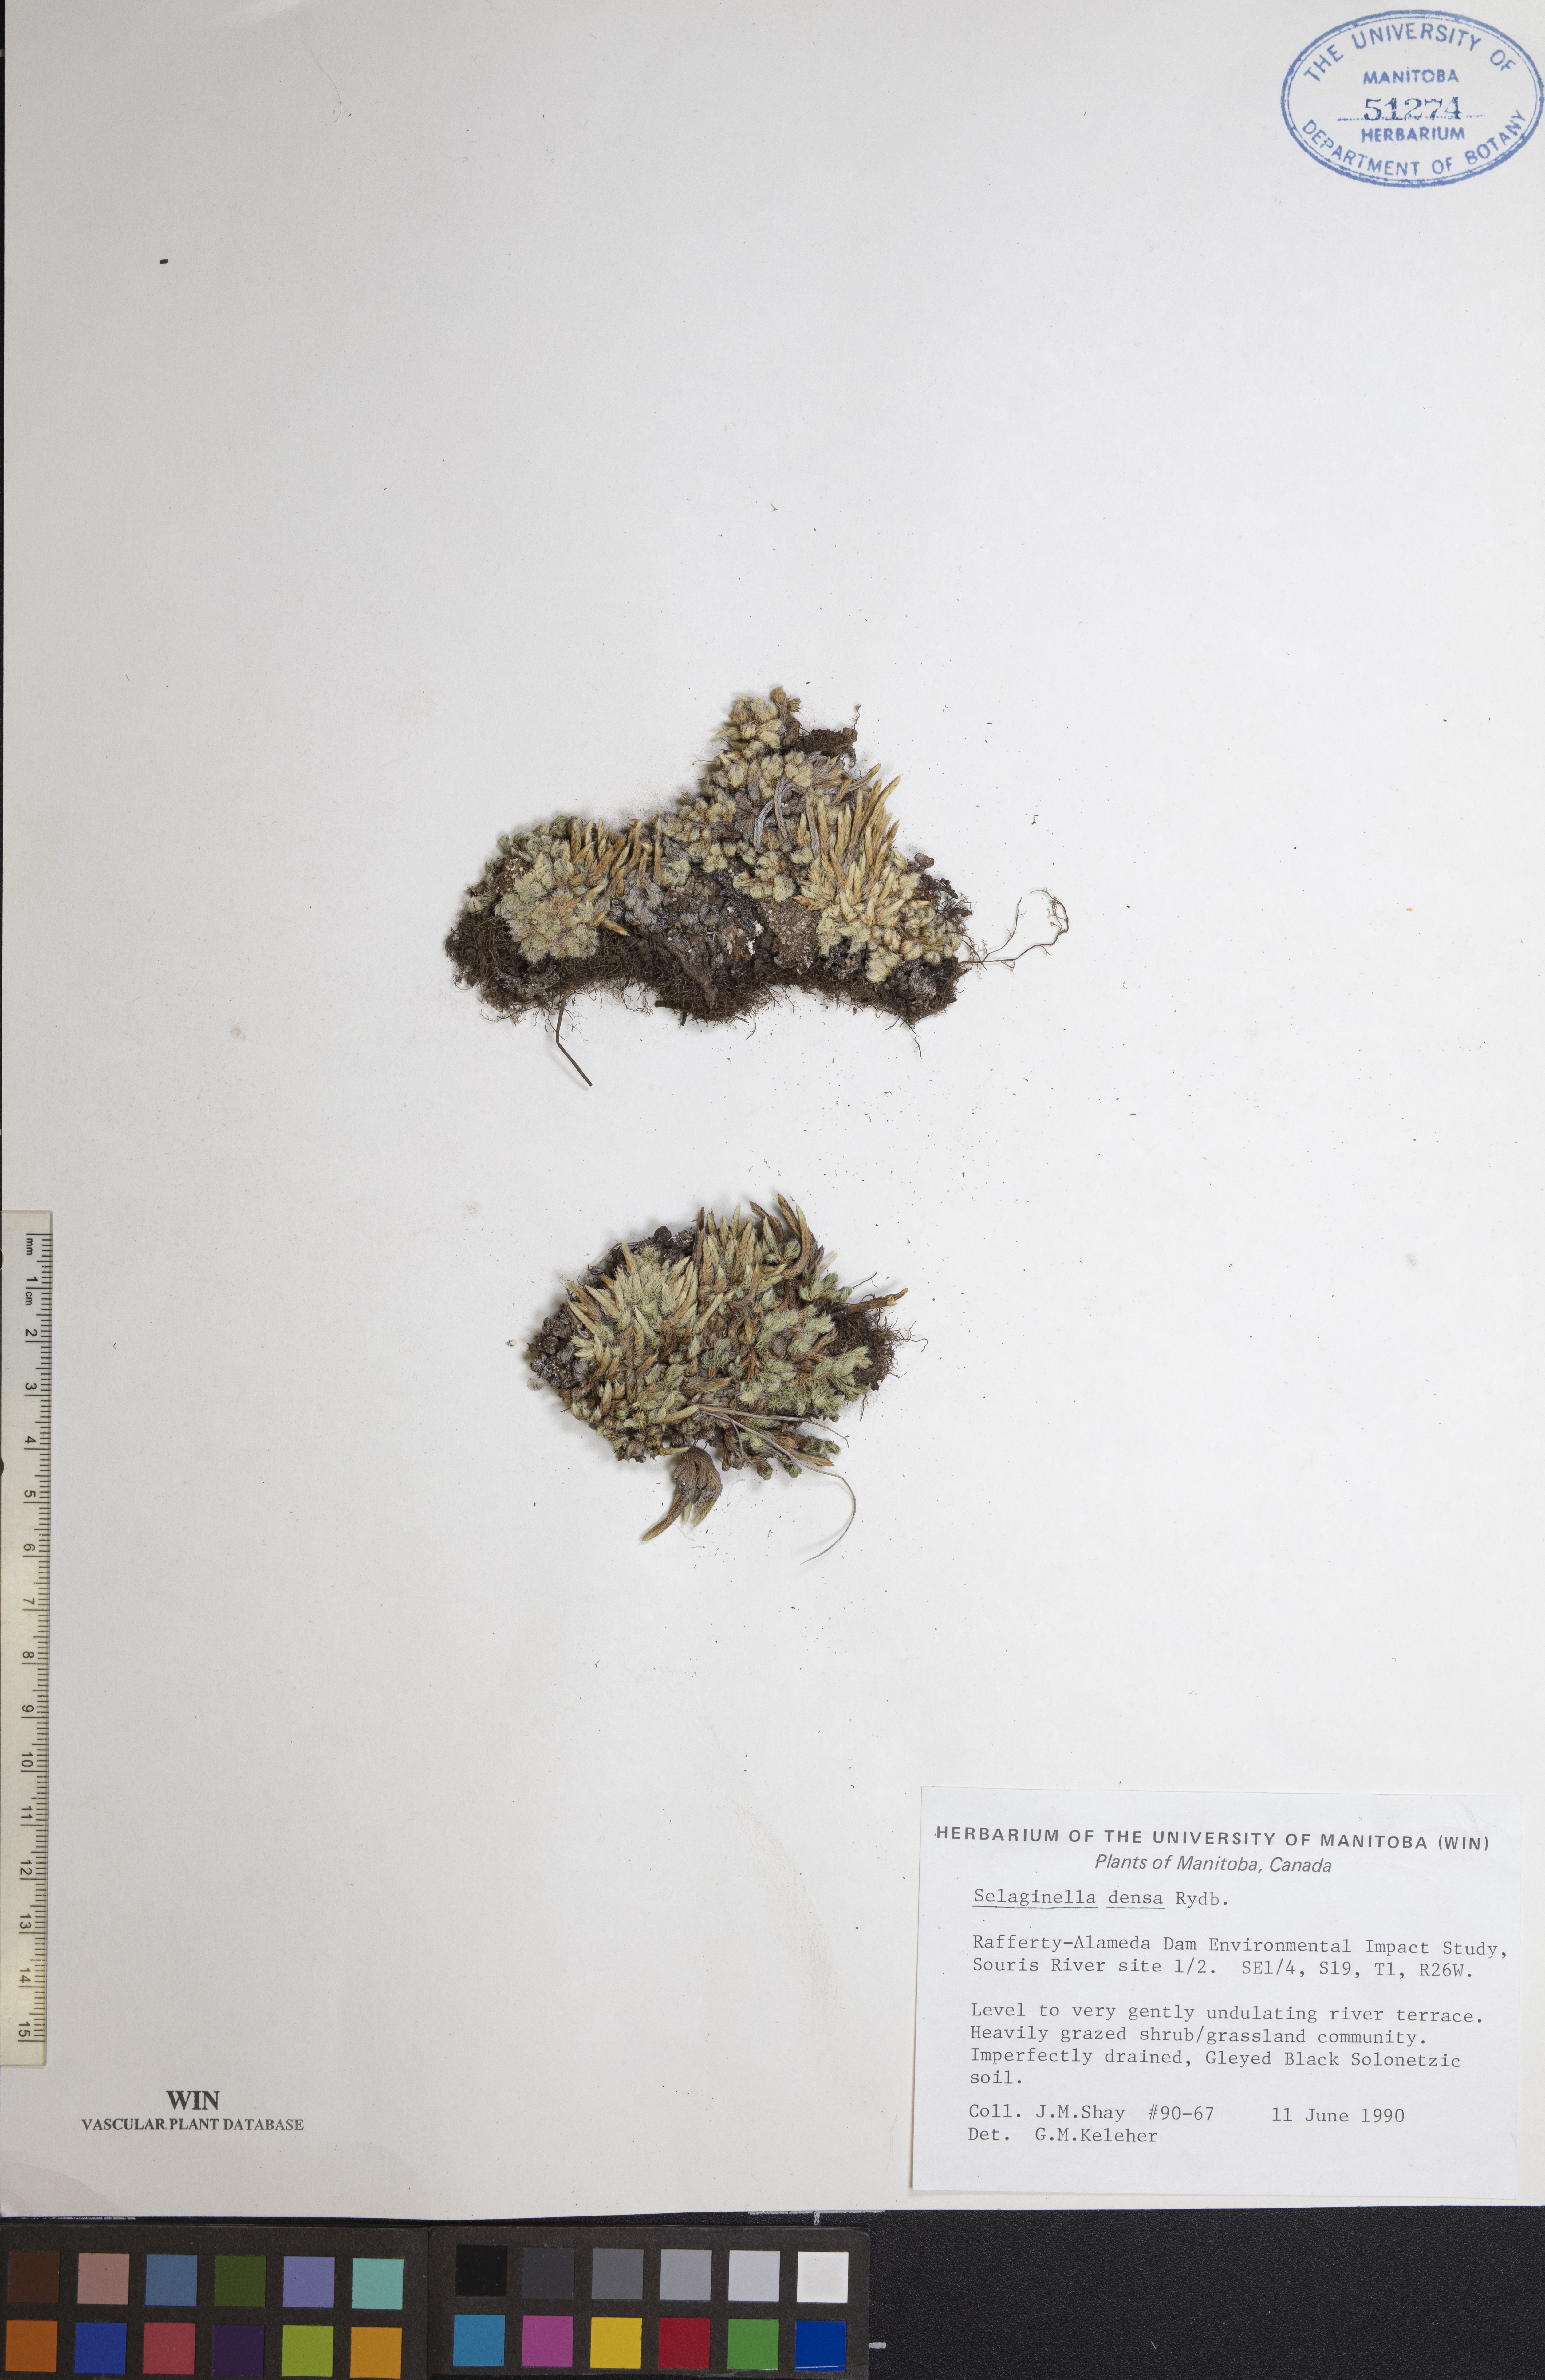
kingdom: Plantae
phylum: Tracheophyta
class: Lycopodiopsida
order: Selaginellales
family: Selaginellaceae
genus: Selaginella
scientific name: Selaginella densa
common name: Mountain spike-moss
